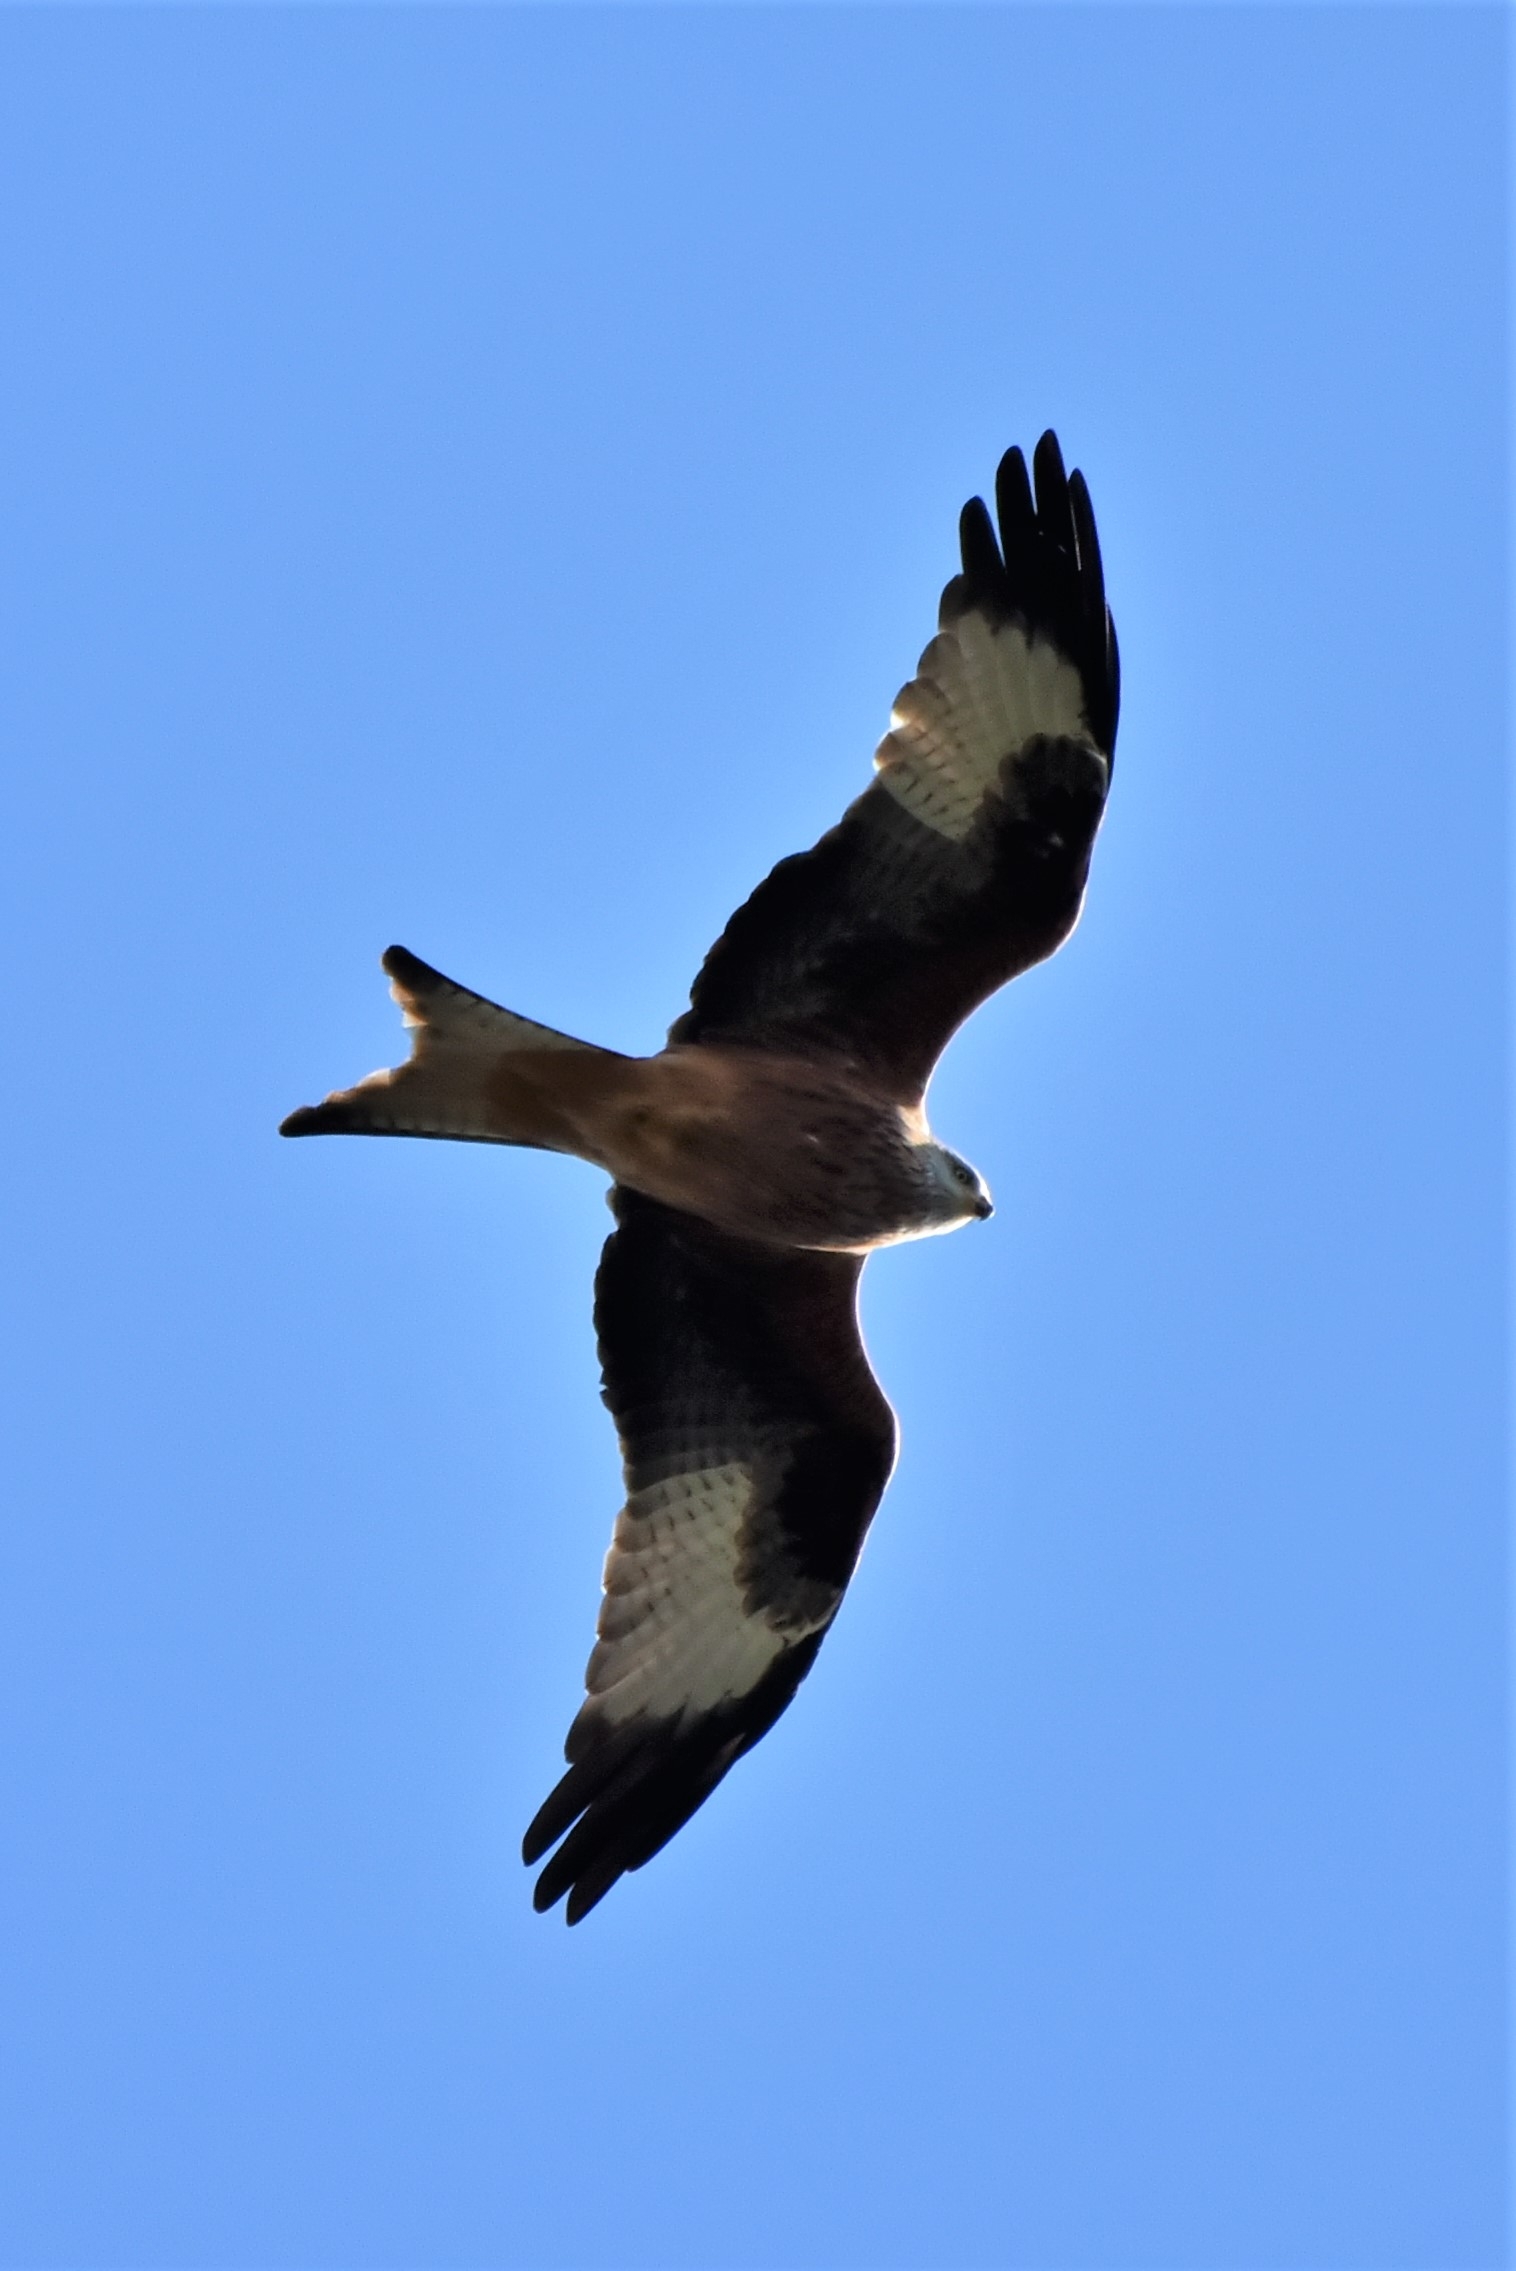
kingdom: Animalia
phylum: Chordata
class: Aves
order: Accipitriformes
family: Accipitridae
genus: Milvus
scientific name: Milvus milvus
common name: Rød glente
